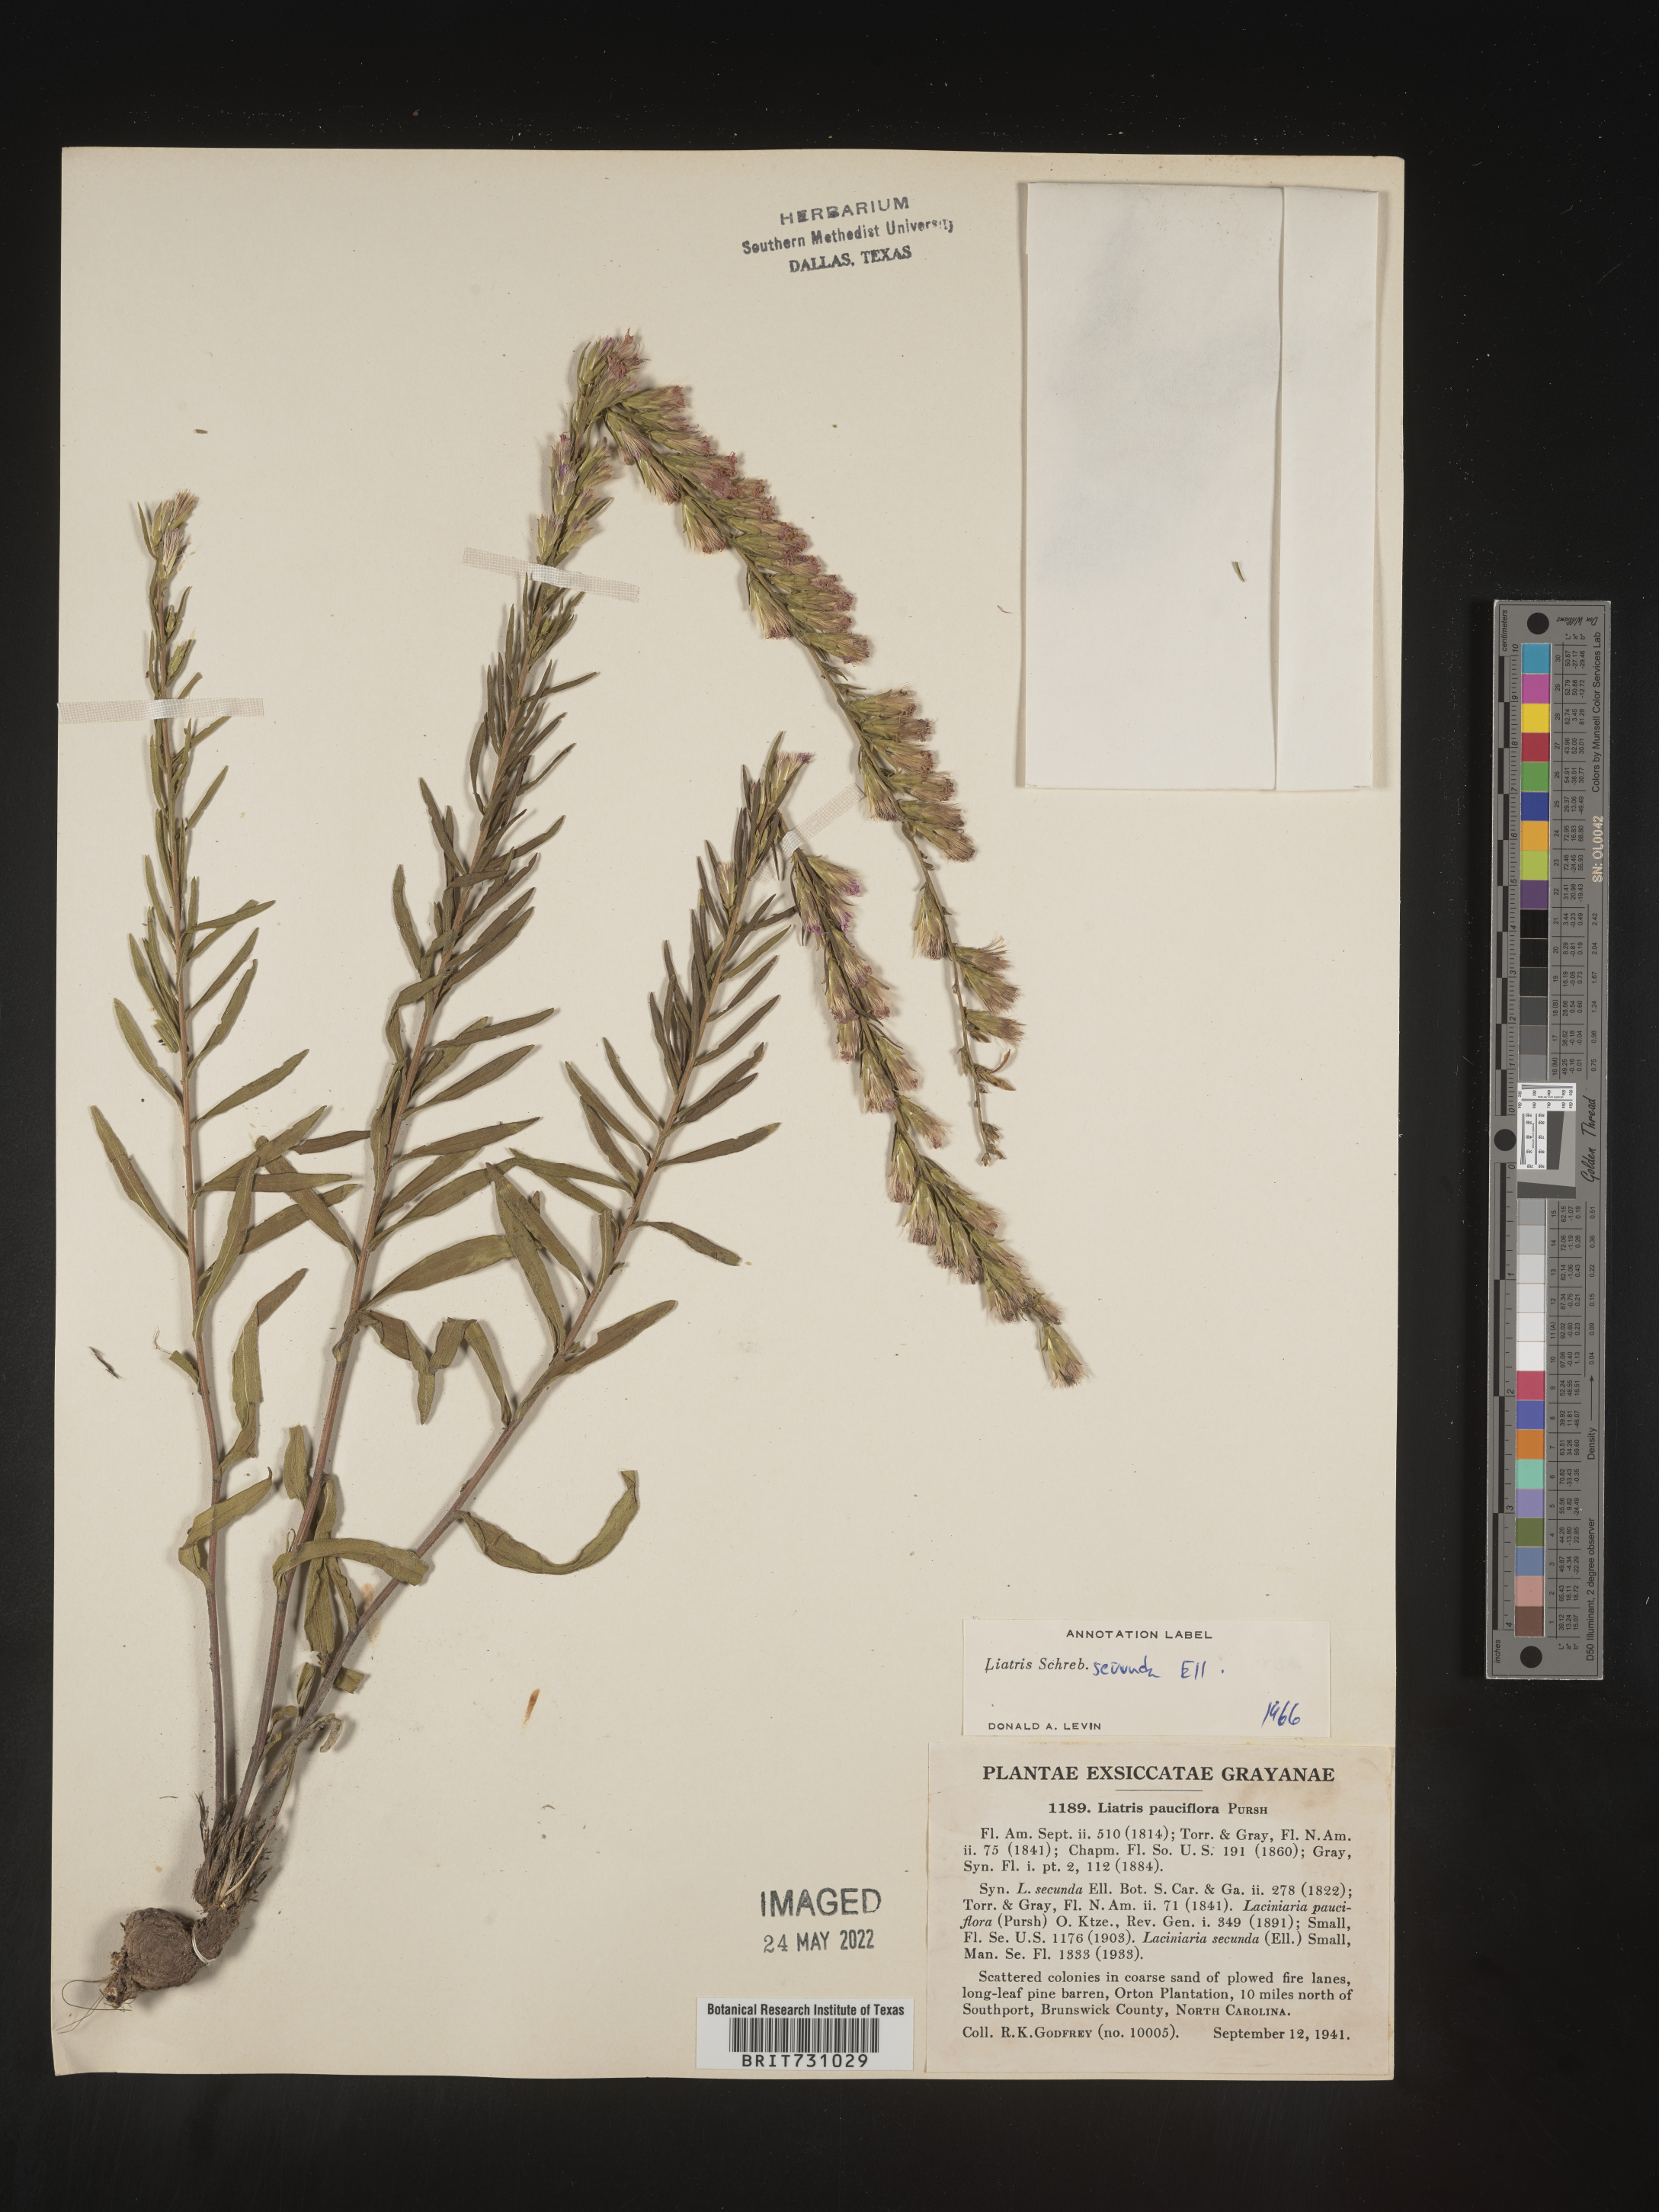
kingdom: Plantae
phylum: Tracheophyta
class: Magnoliopsida
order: Asterales
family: Asteraceae
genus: Liatris
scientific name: Liatris pauciflora
